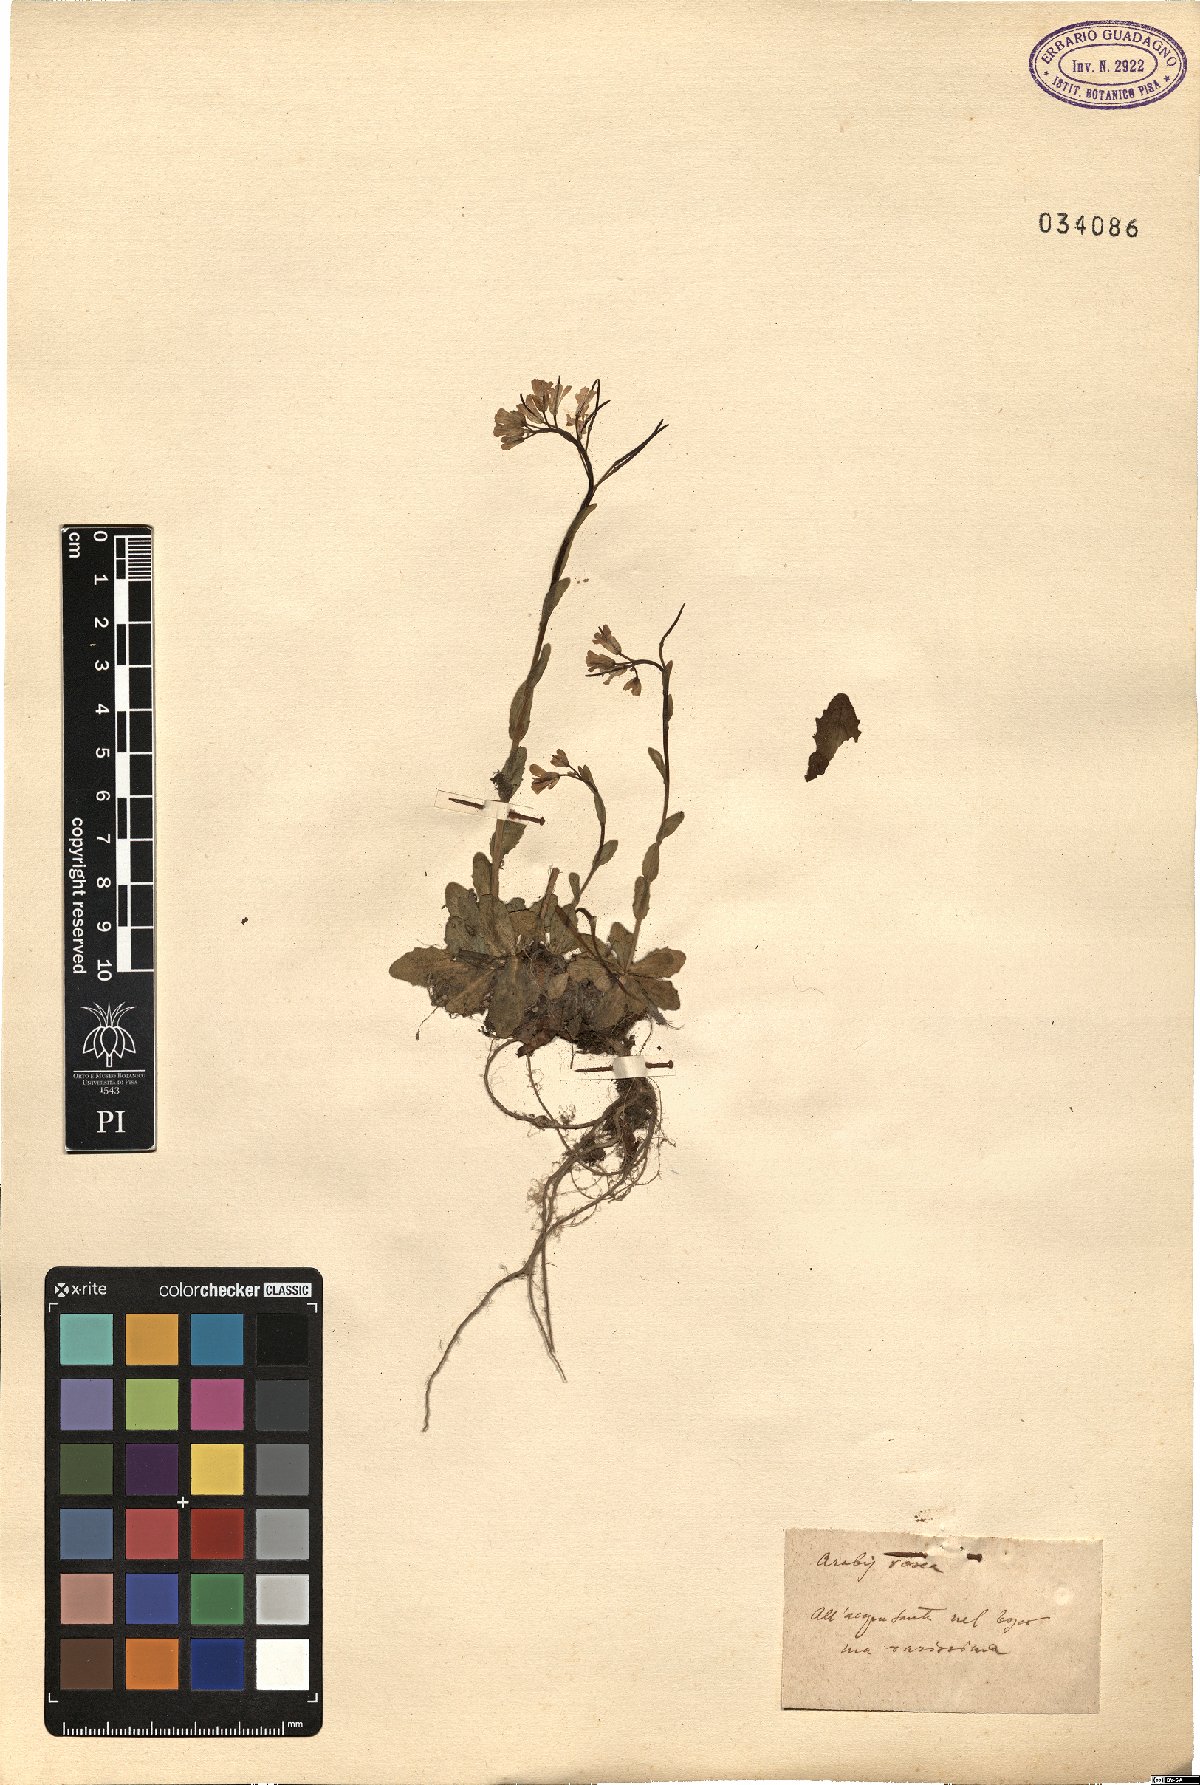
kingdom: Plantae
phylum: Tracheophyta
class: Magnoliopsida
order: Brassicales
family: Brassicaceae
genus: Arabis
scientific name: Arabis collina
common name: Rosy cress
